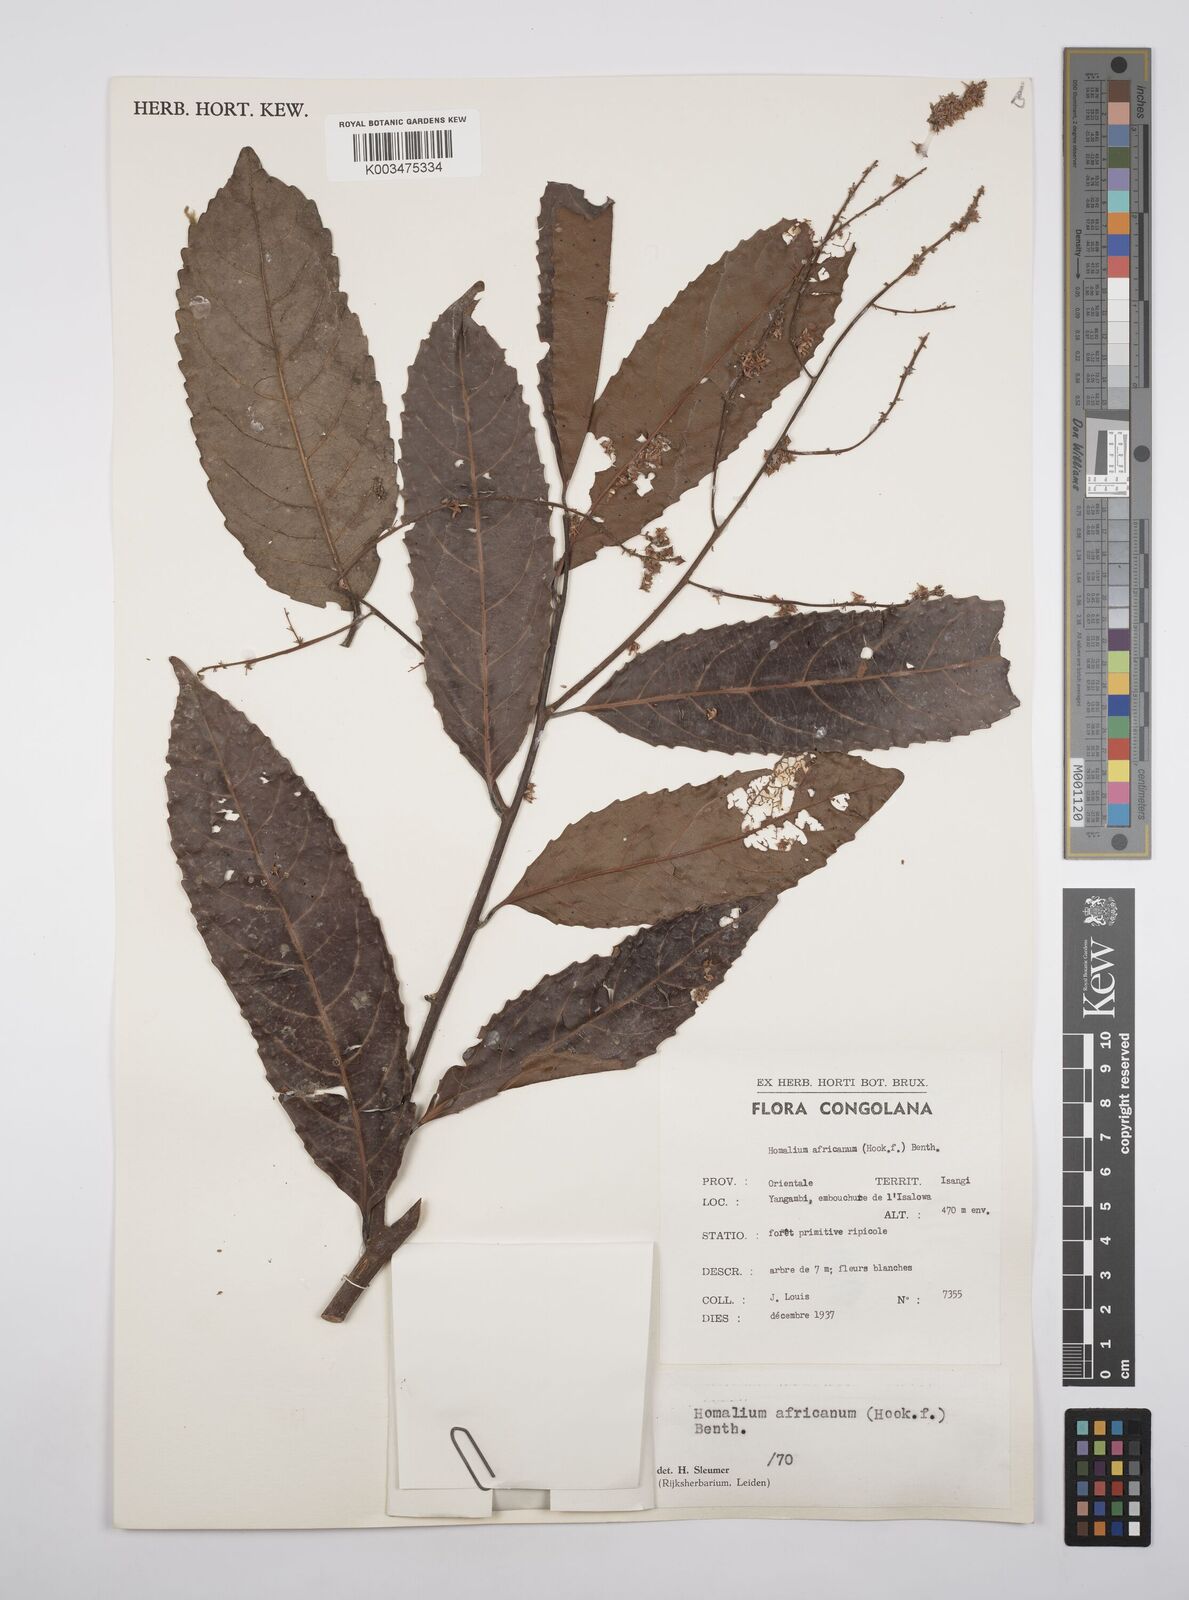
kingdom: Plantae
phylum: Tracheophyta
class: Magnoliopsida
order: Malpighiales
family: Salicaceae
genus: Homalium
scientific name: Homalium africanum
